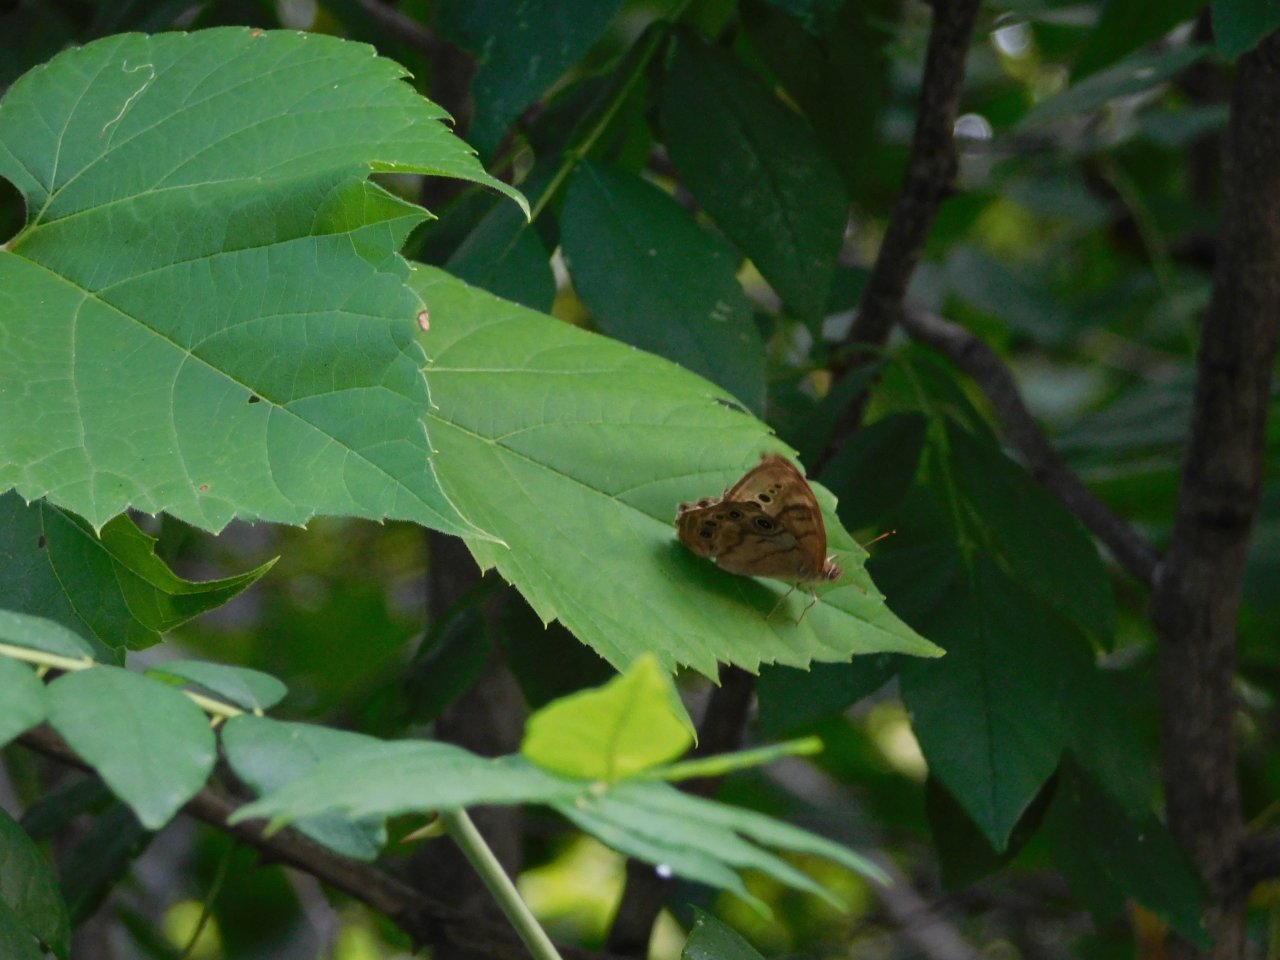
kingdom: Animalia
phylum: Arthropoda
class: Insecta
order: Lepidoptera
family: Nymphalidae
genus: Lethe
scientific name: Lethe anthedon
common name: Northern Pearly-Eye
